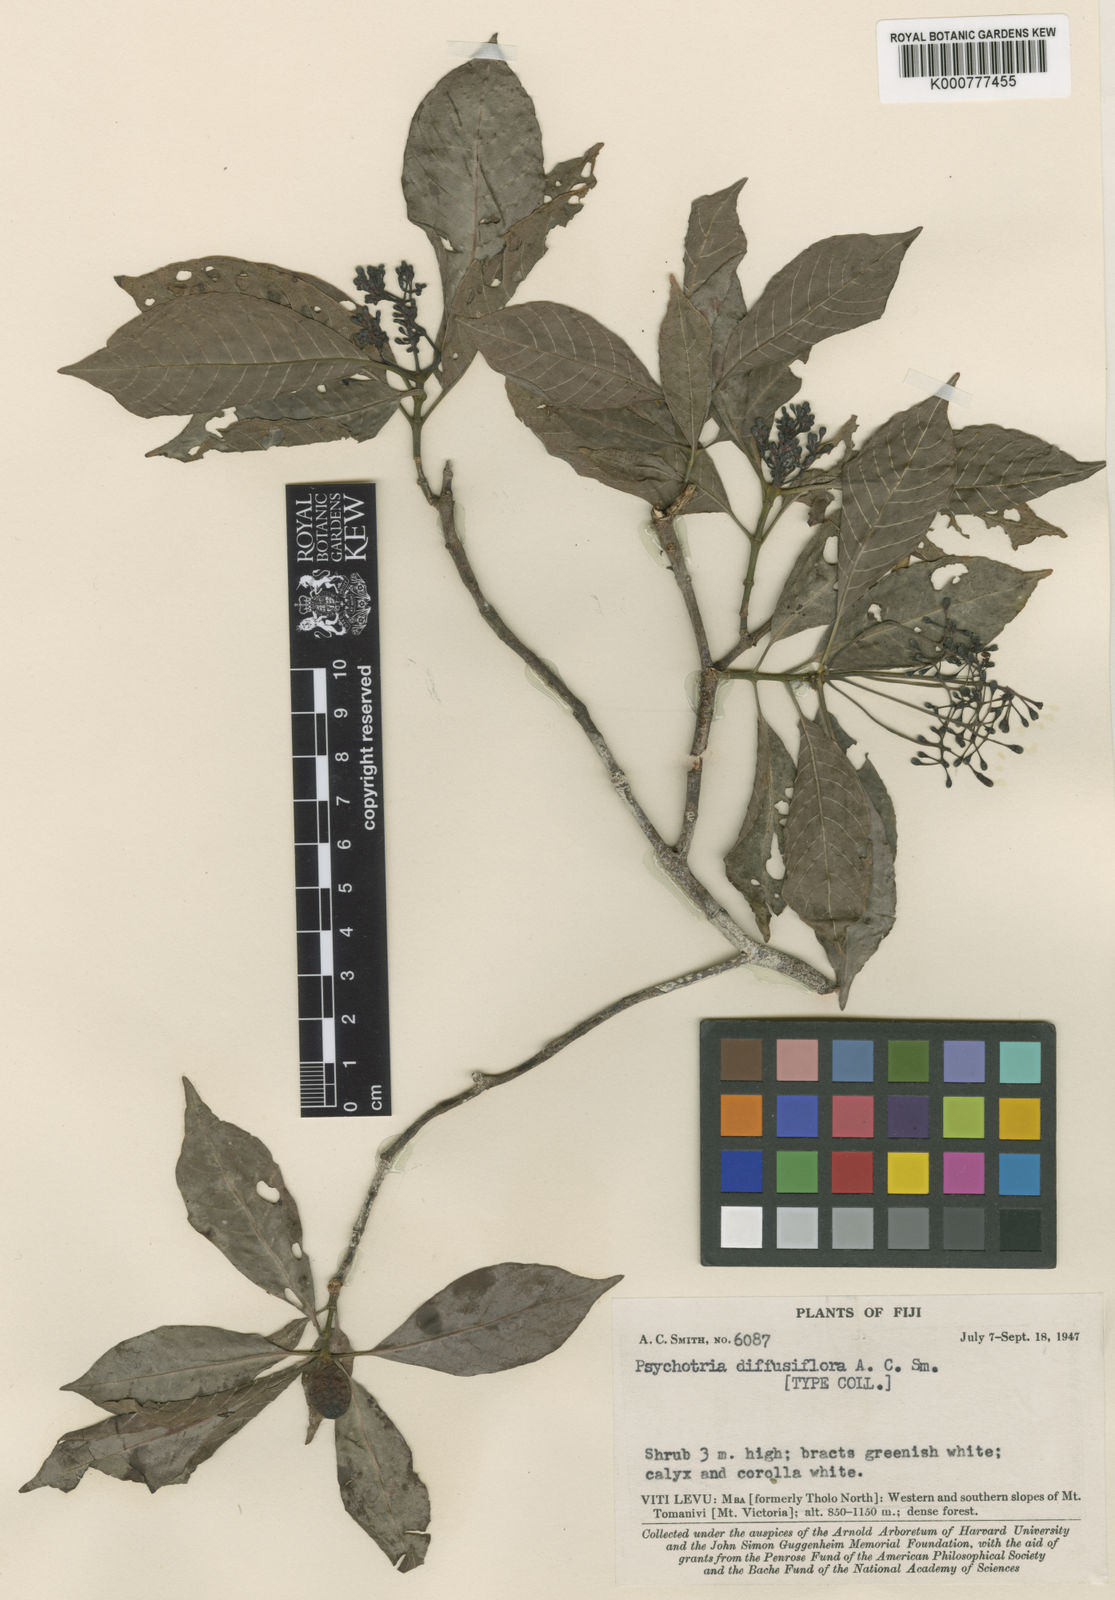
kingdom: Plantae
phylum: Tracheophyta
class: Magnoliopsida
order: Gentianales
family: Rubiaceae
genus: Psychotria
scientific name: Psychotria diffusiflora
